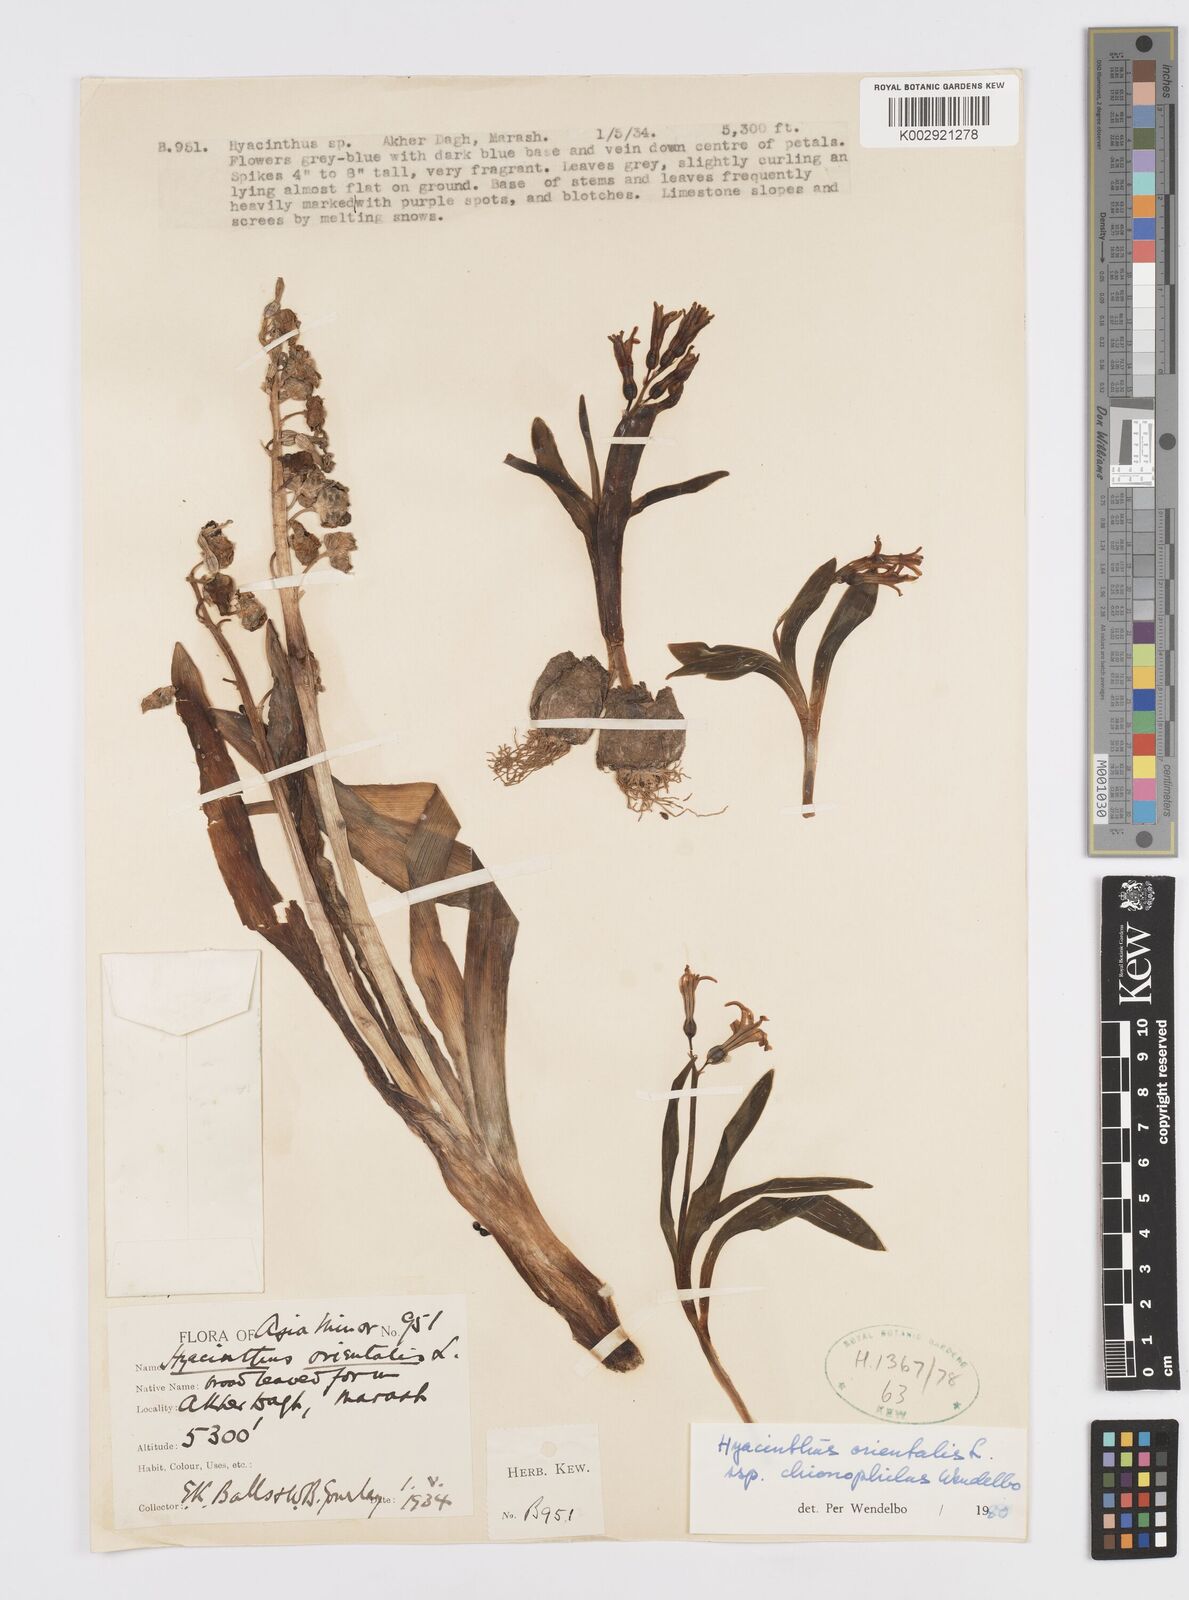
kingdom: Plantae
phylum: Tracheophyta
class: Liliopsida
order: Asparagales
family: Asparagaceae
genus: Hyacinthus
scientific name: Hyacinthus orientalis
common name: Hyacinth
